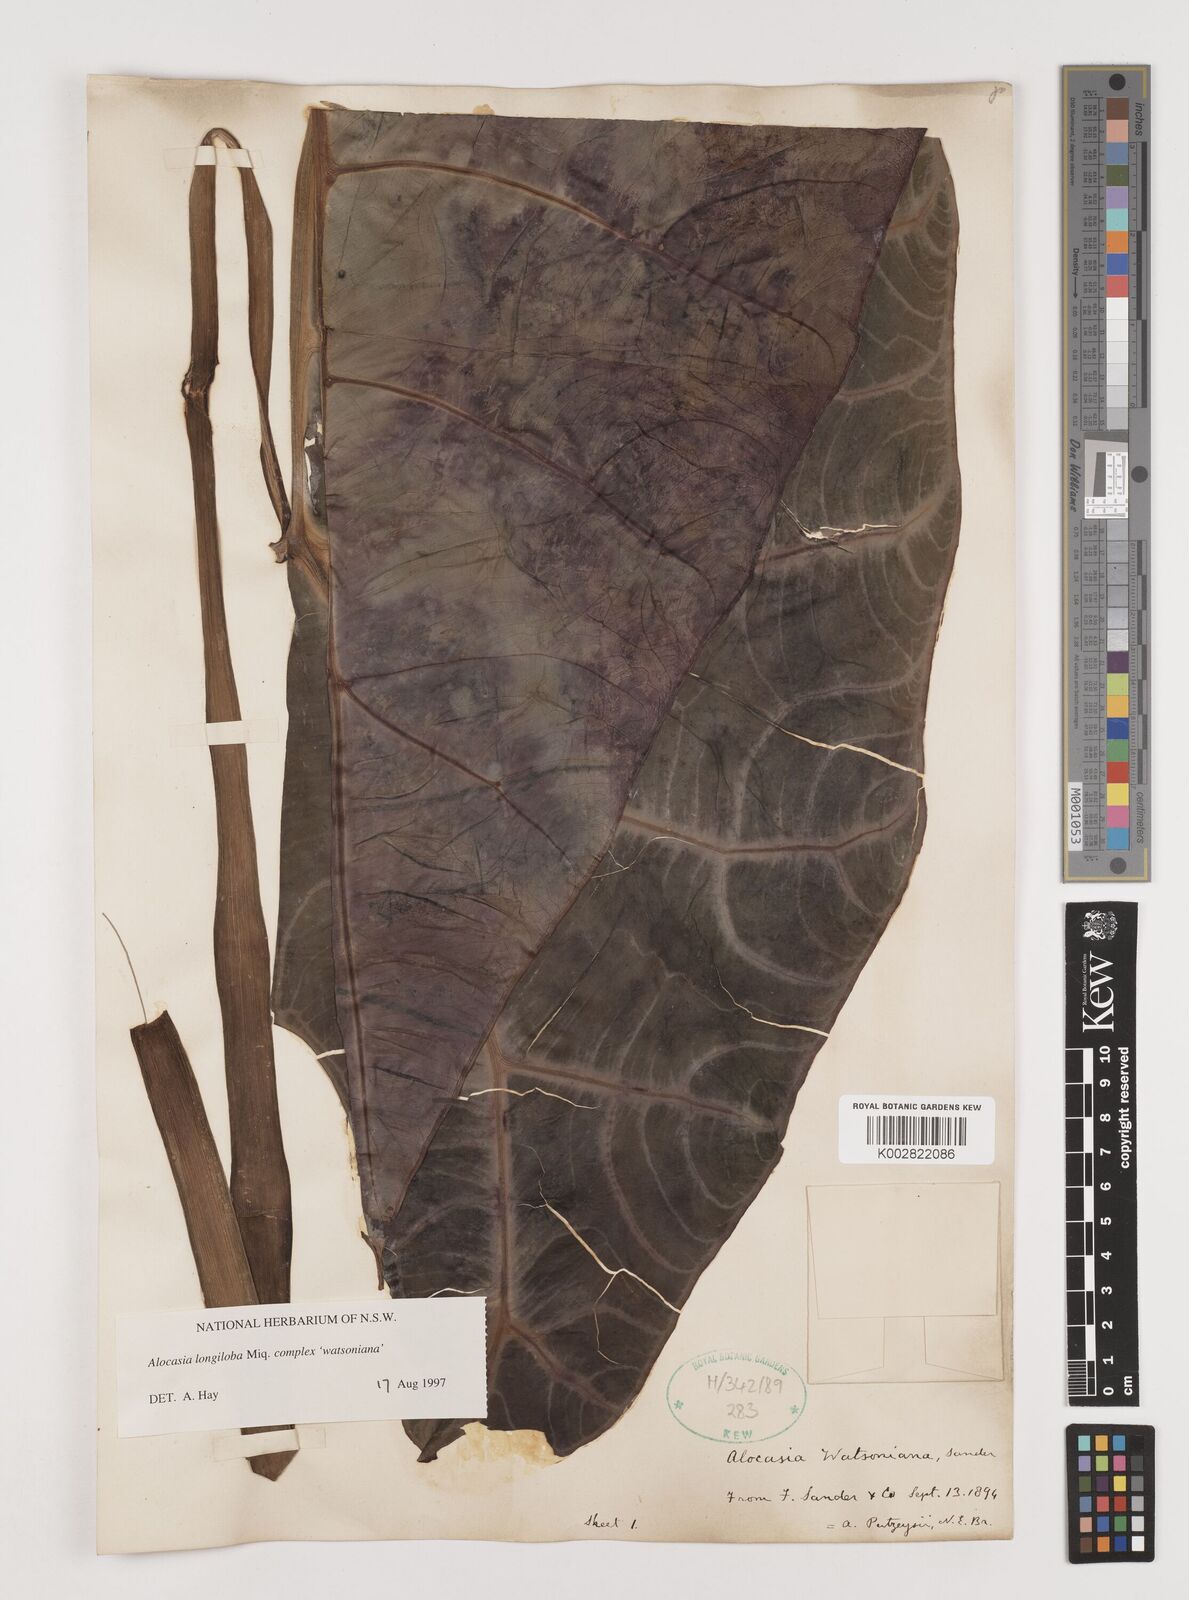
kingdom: Plantae
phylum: Tracheophyta
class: Liliopsida
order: Alismatales
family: Araceae
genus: Alocasia
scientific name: Alocasia longiloba
